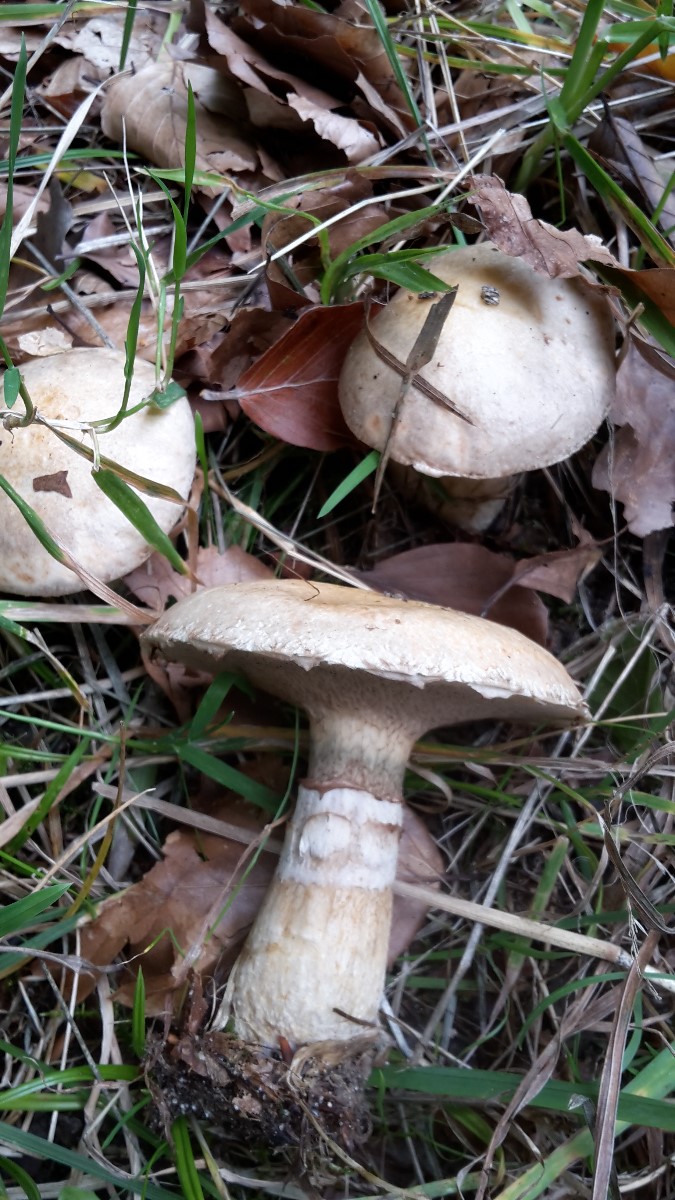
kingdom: Fungi
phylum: Basidiomycota
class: Agaricomycetes
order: Boletales
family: Suillaceae
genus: Suillus
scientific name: Suillus viscidus
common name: olivengrå slimrørhat
